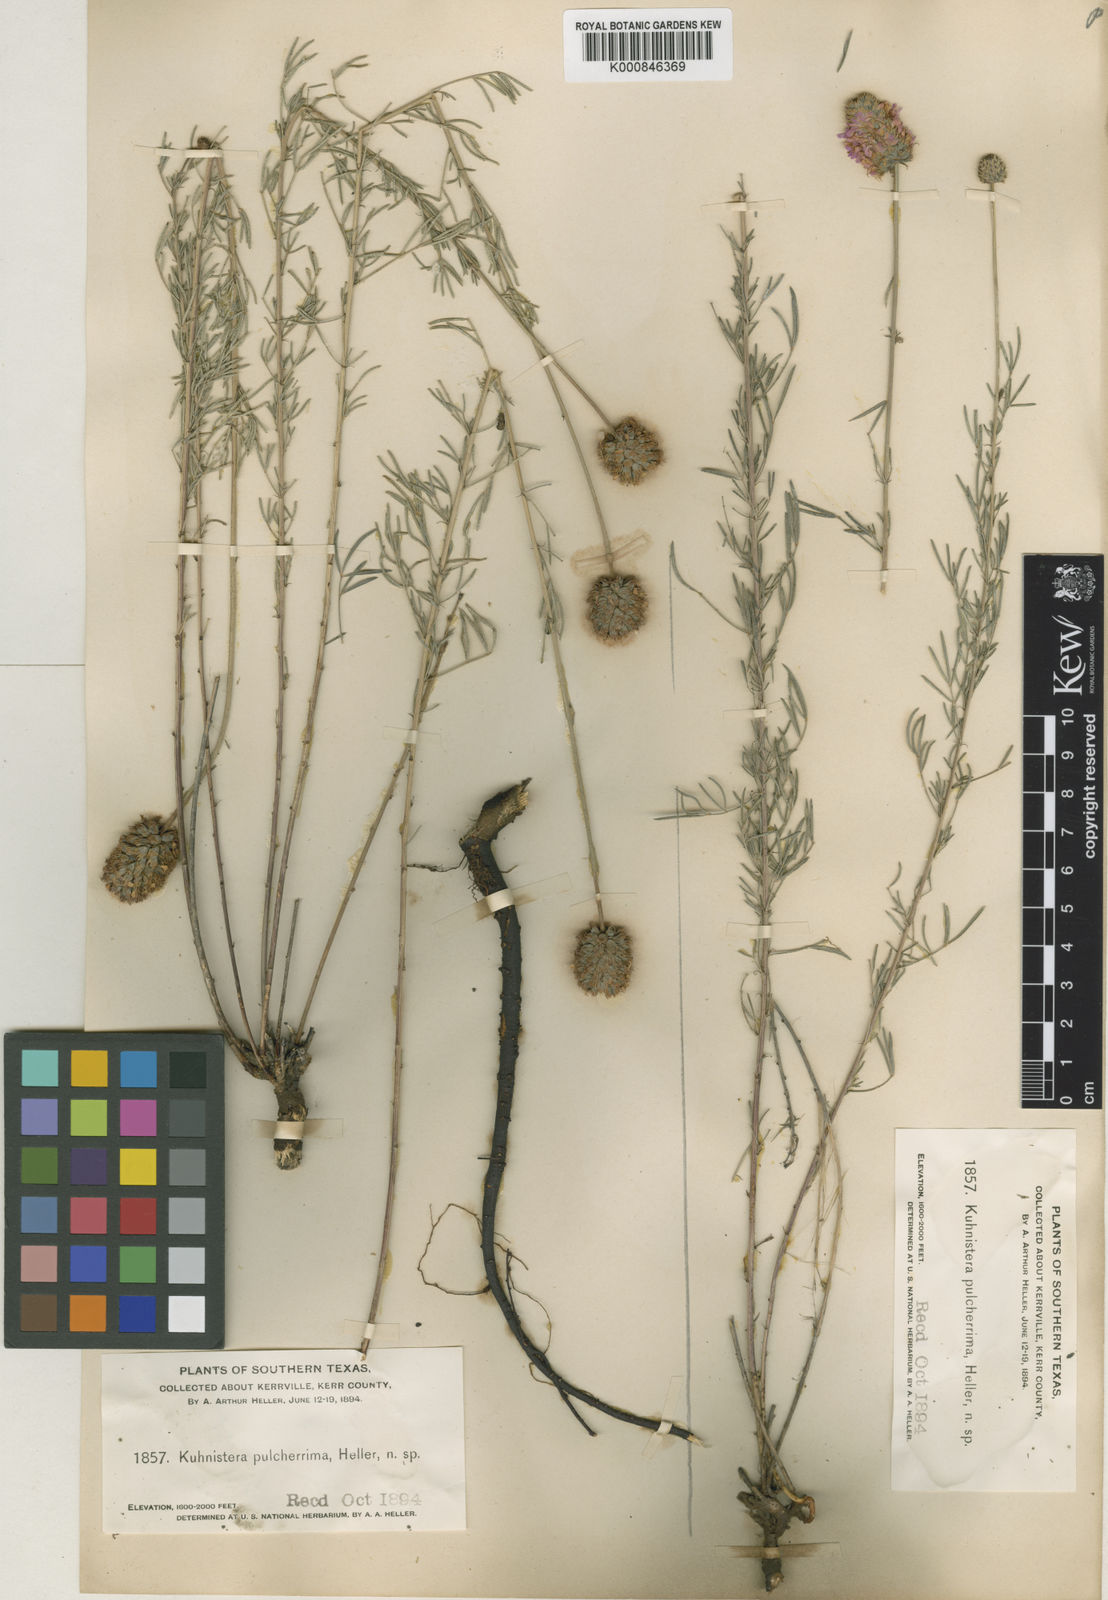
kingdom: Plantae
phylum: Tracheophyta
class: Magnoliopsida
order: Fabales
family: Fabaceae
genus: Dalea
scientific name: Dalea compacta
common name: Compact prairie-clover
